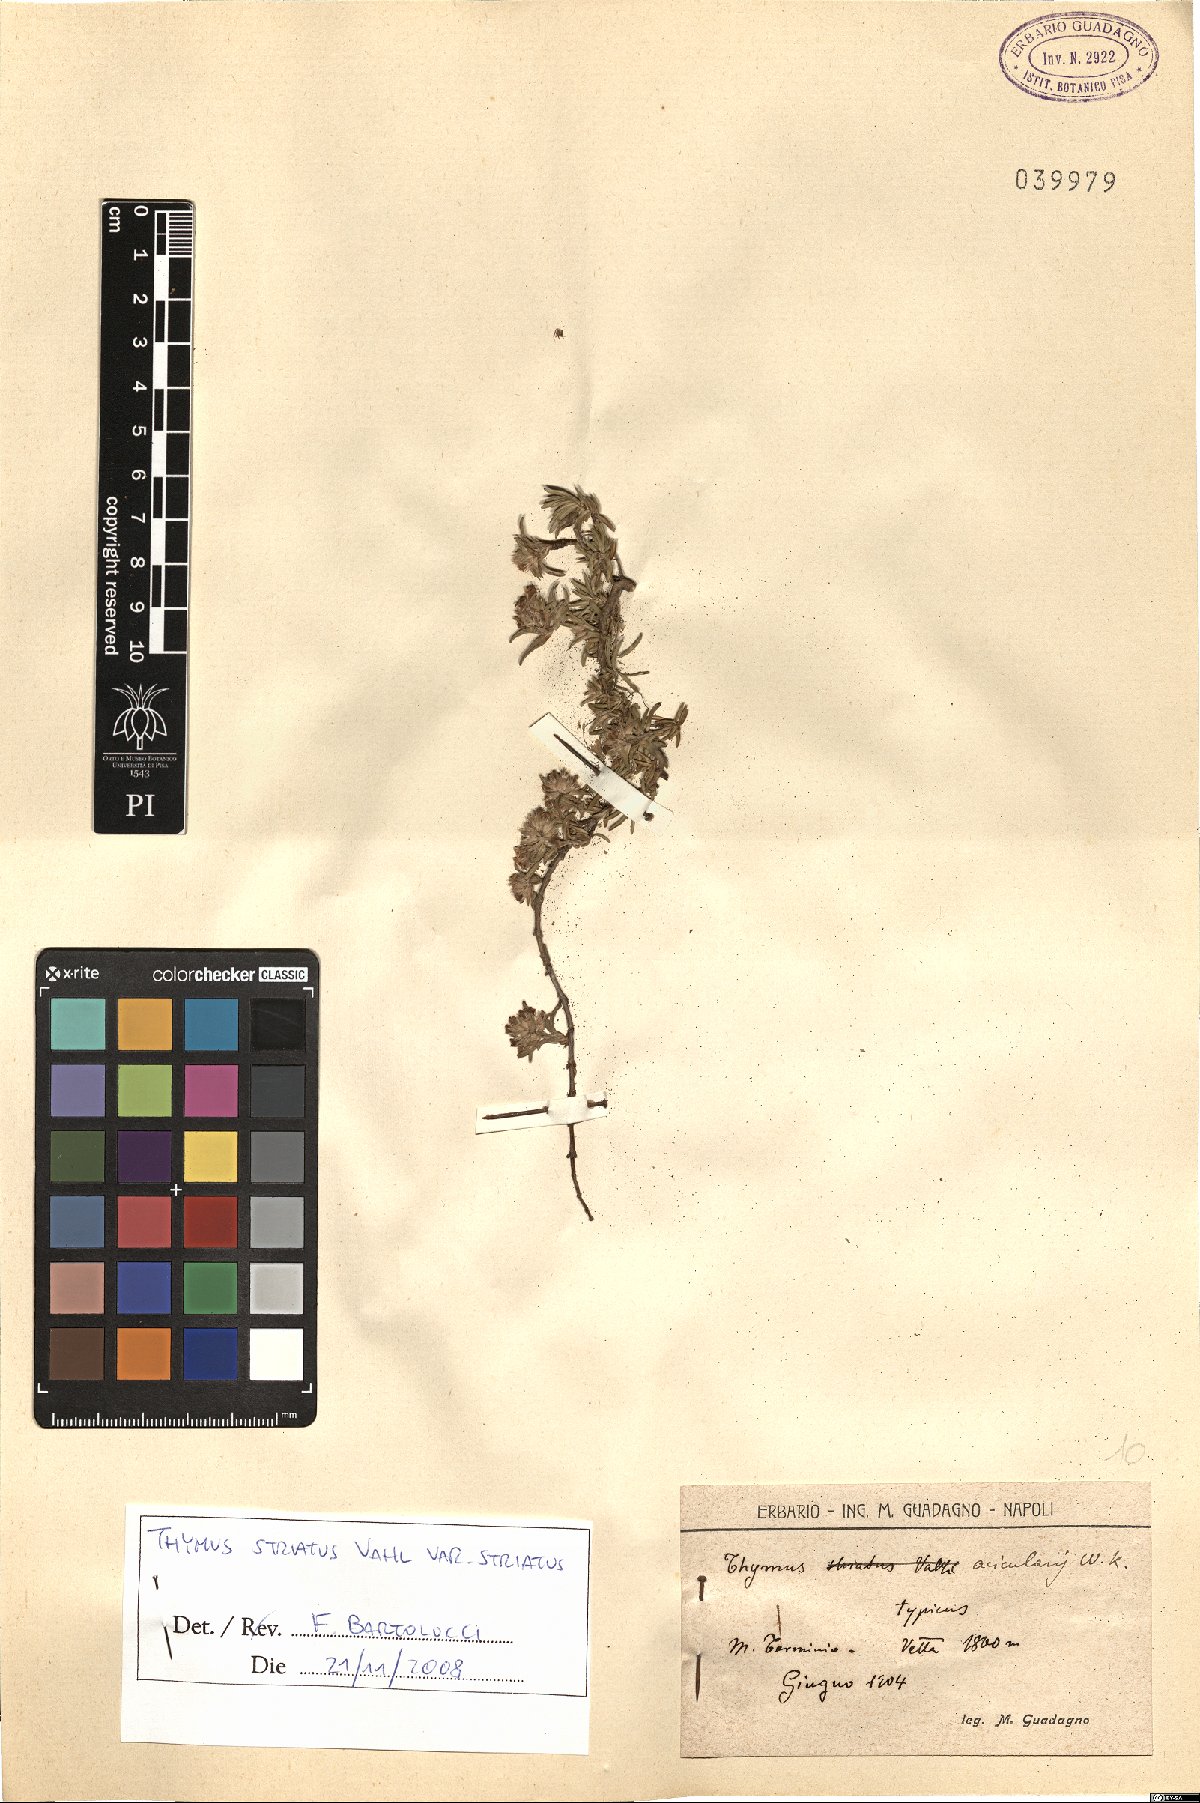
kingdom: Plantae
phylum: Tracheophyta
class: Magnoliopsida
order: Lamiales
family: Lamiaceae
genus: Thymus
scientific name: Thymus striatus
